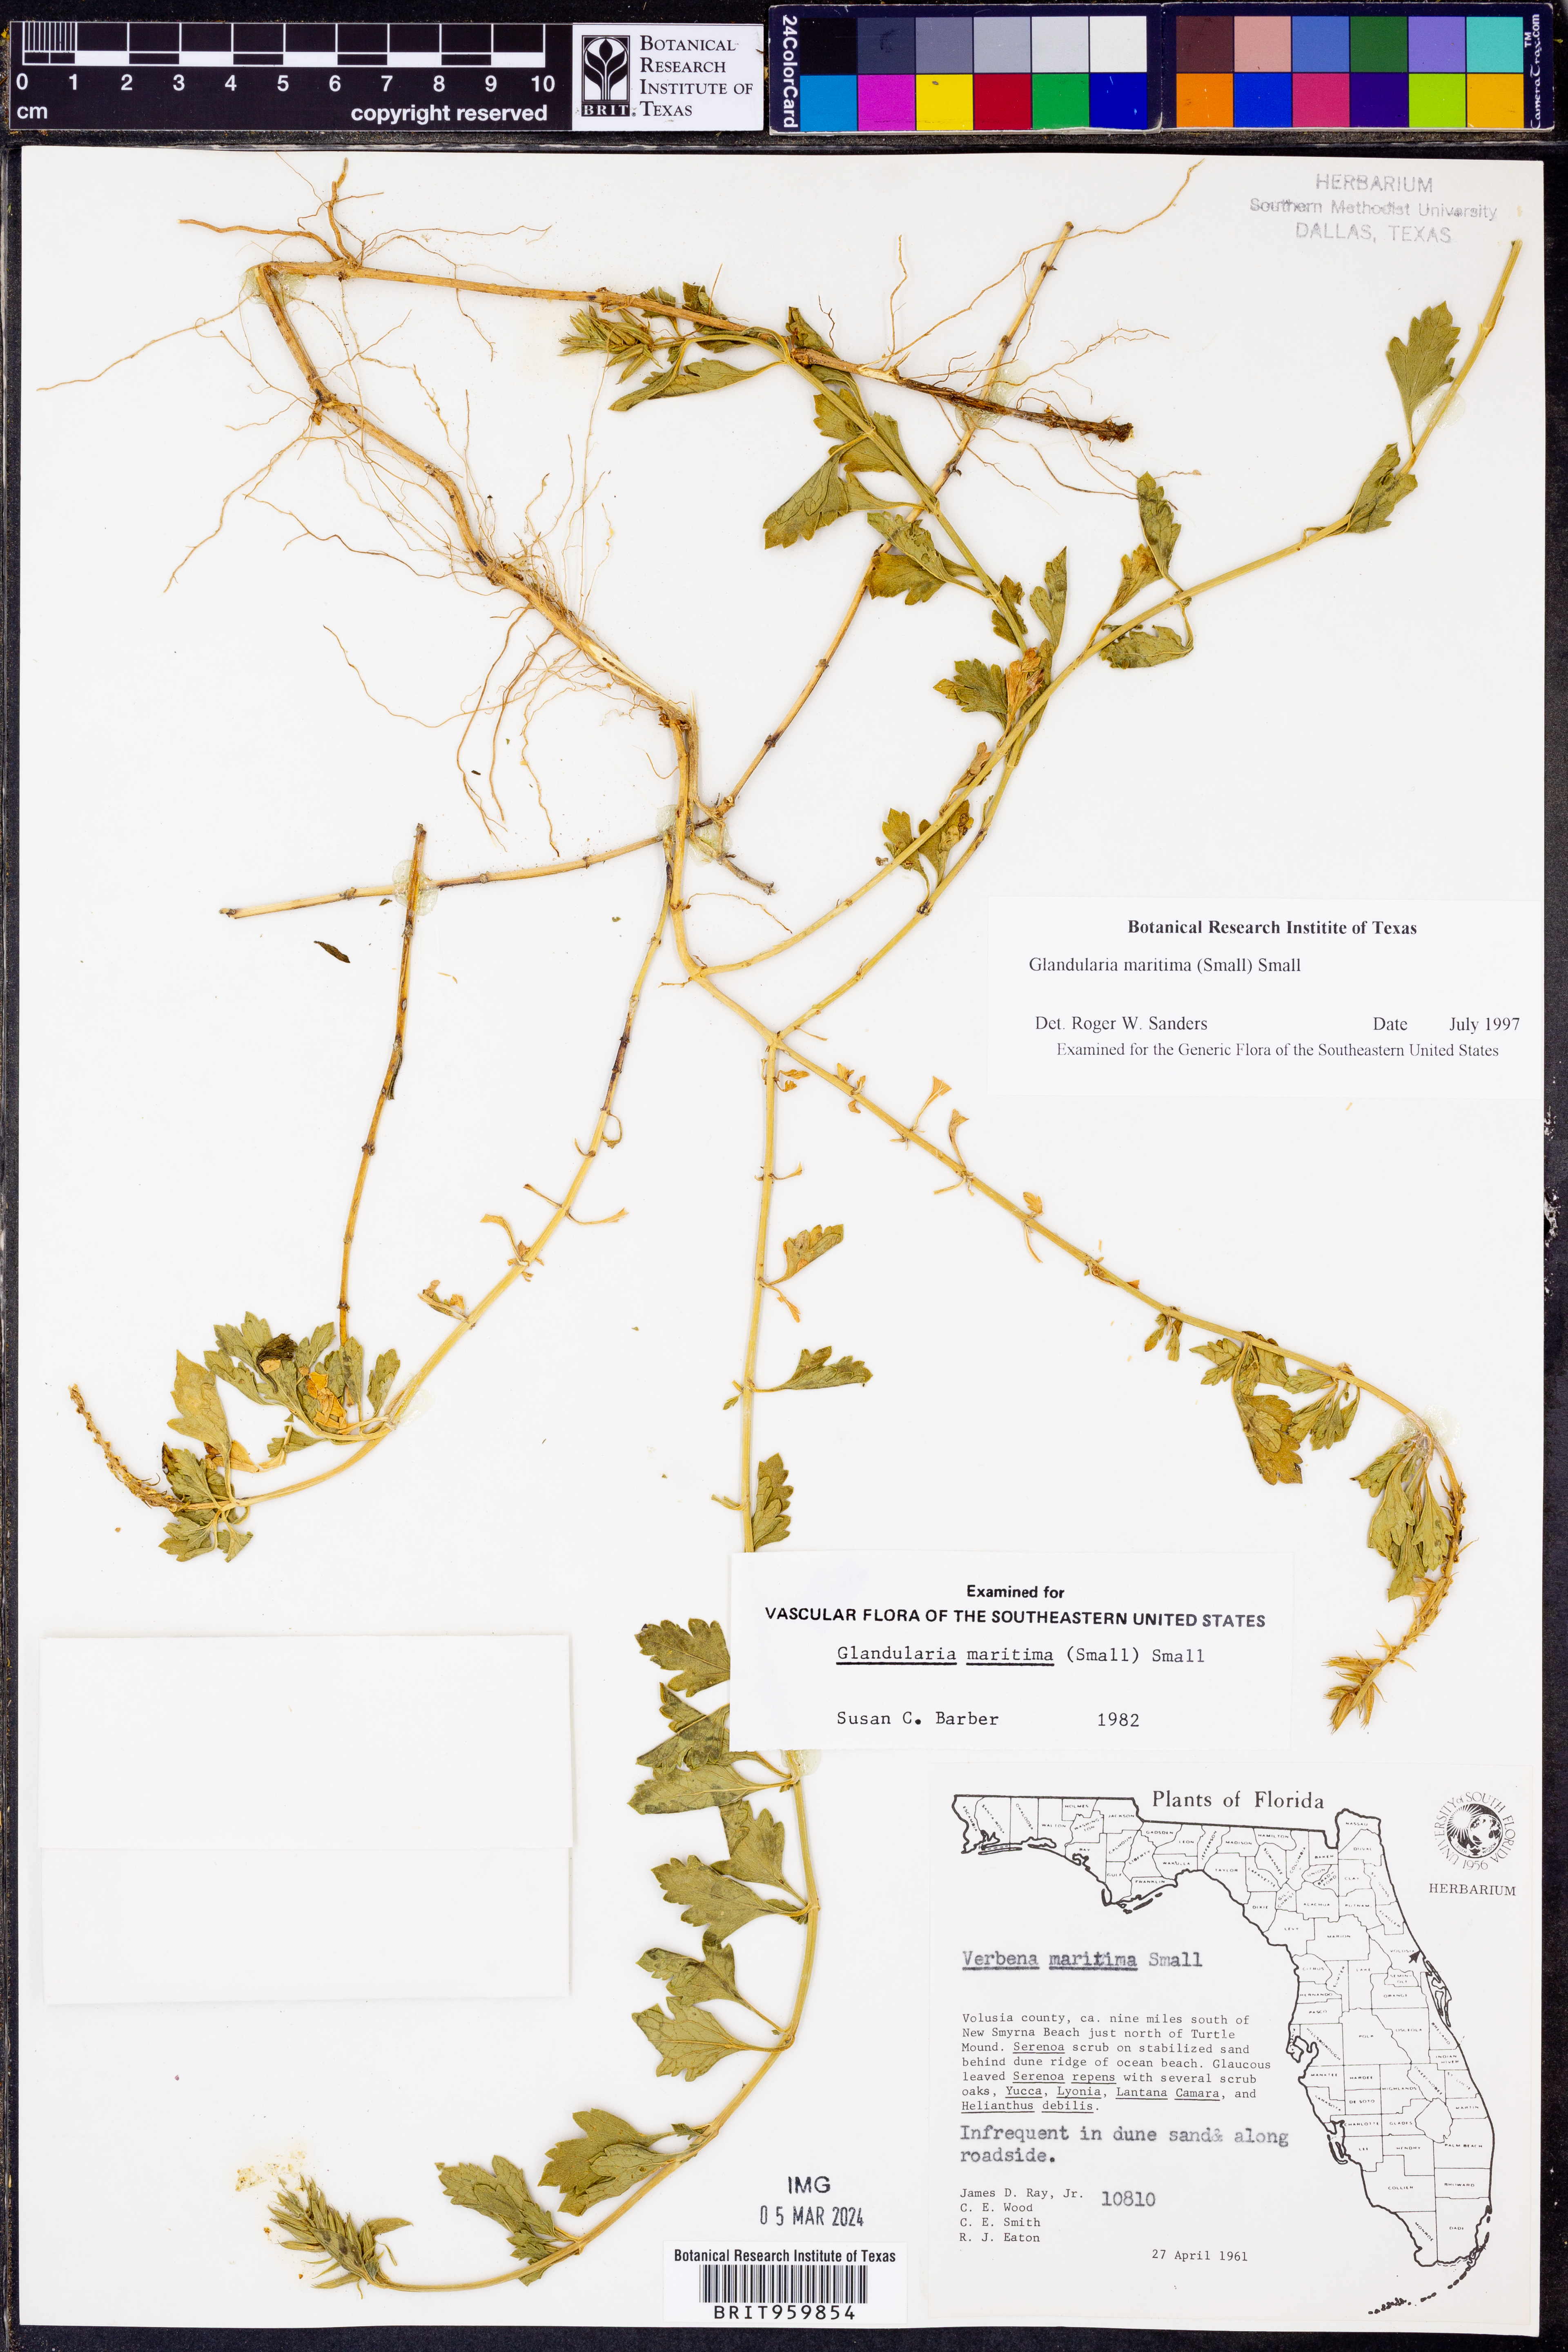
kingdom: Plantae
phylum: Tracheophyta
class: Magnoliopsida
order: Lamiales
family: Verbenaceae
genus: Verbena
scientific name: Verbena maritima
